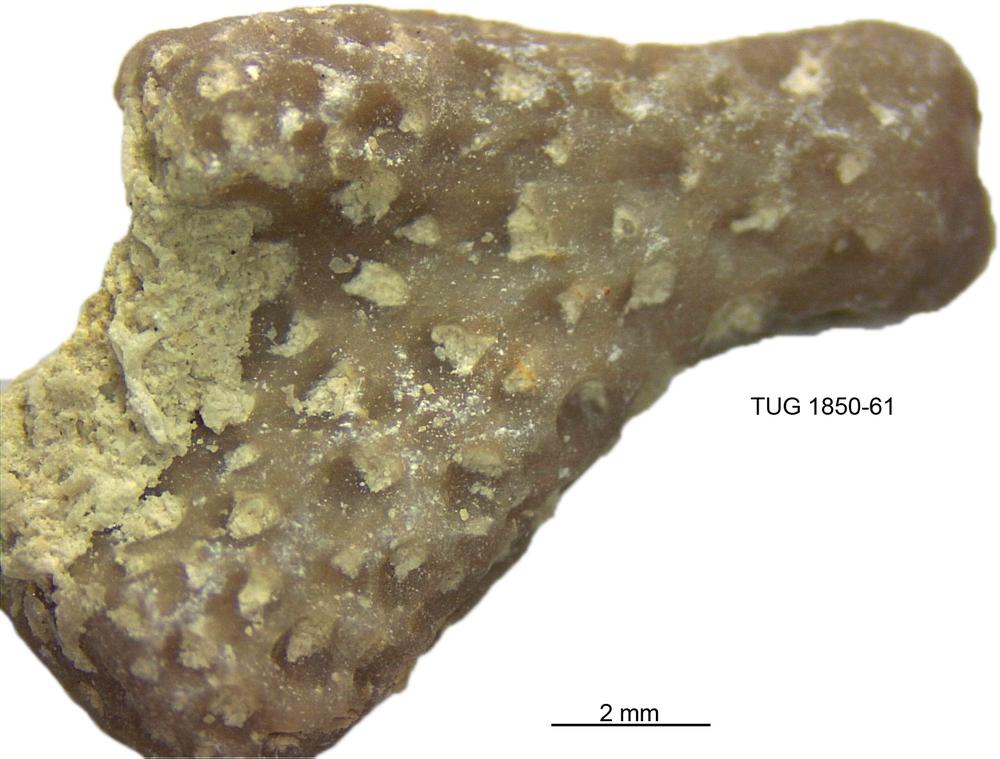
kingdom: Animalia
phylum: Cnidaria
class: Anthozoa
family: Coenitidae
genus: Coenites
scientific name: Coenites juniperinus
